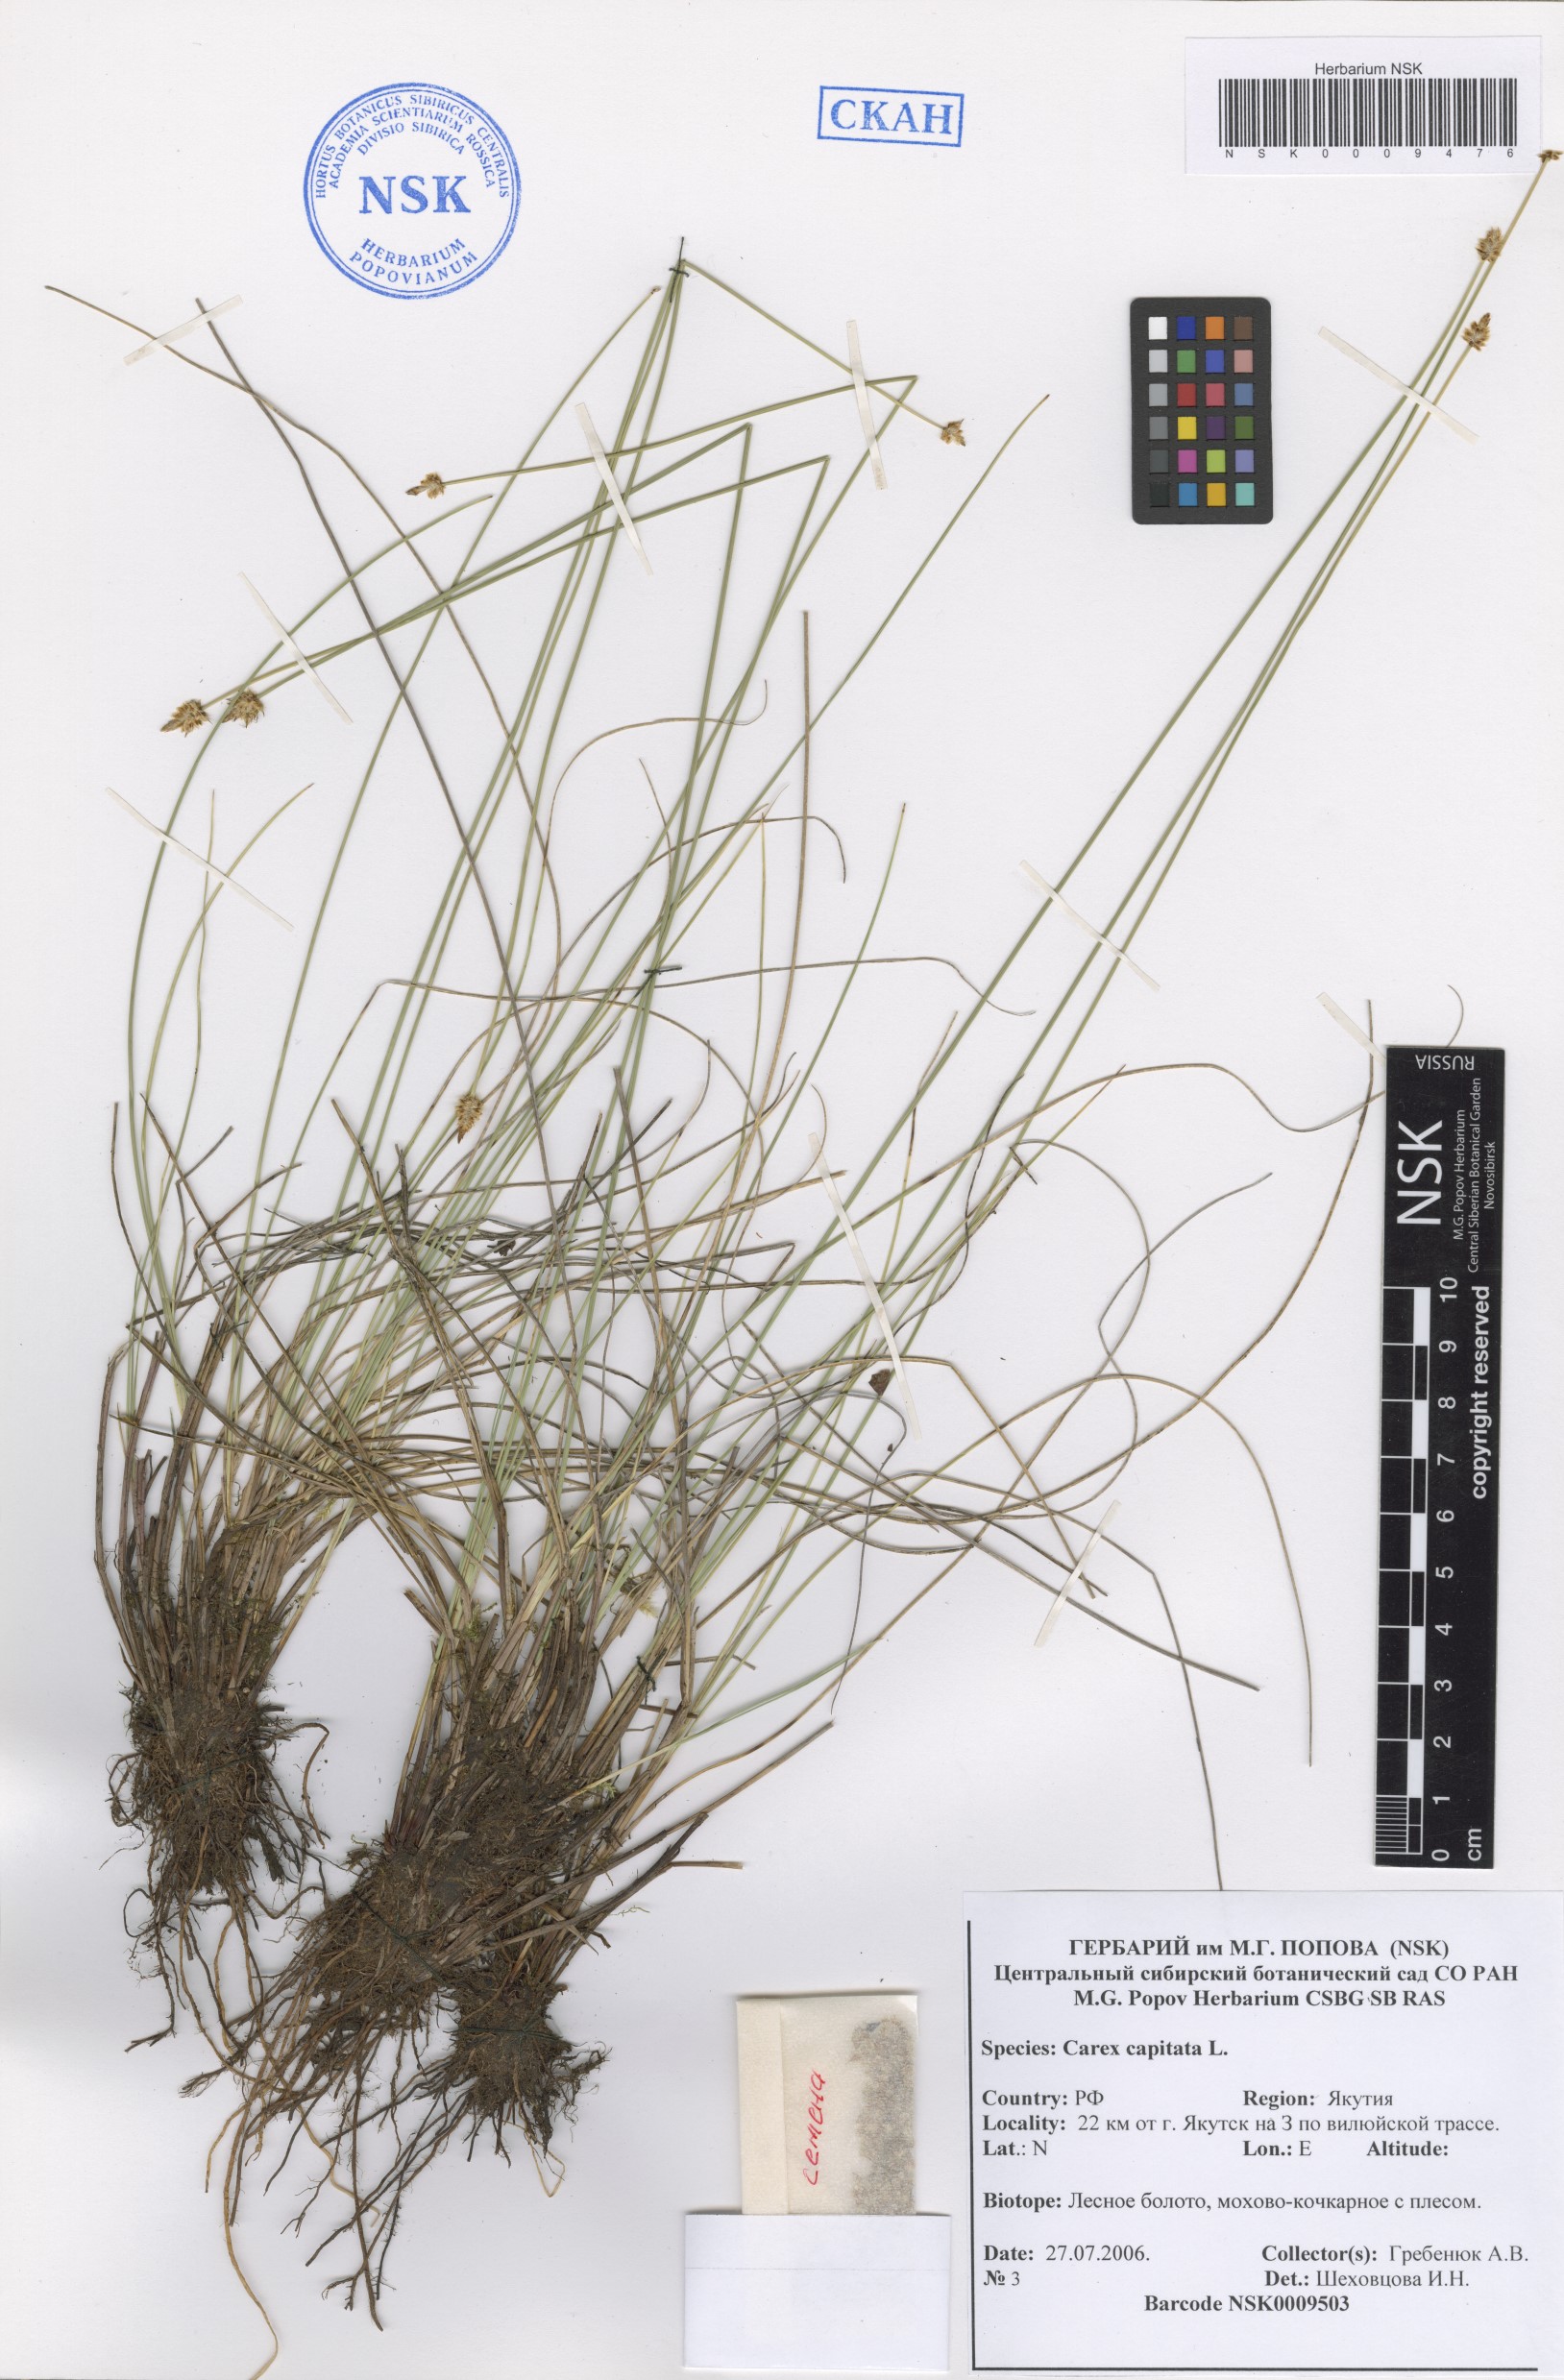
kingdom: Plantae
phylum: Tracheophyta
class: Liliopsida
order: Poales
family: Cyperaceae
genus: Carex
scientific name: Carex capitata
